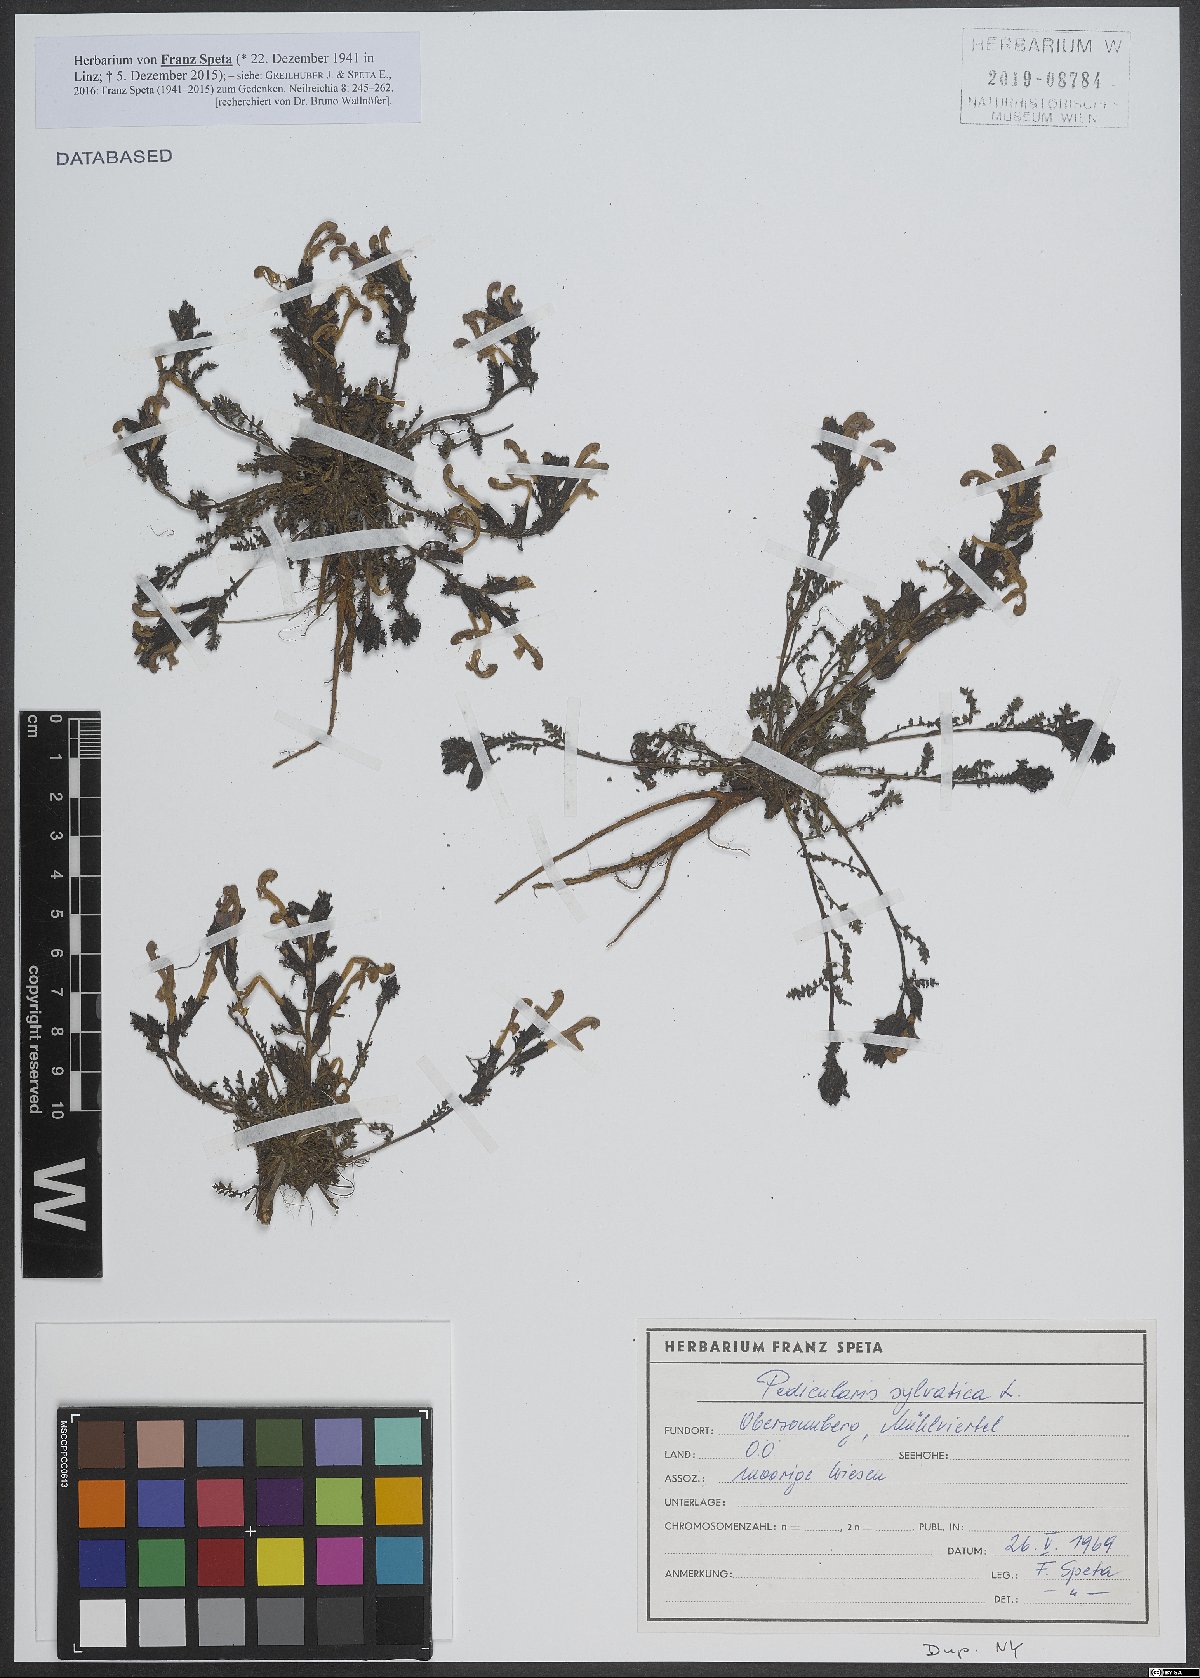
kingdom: Plantae
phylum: Tracheophyta
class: Magnoliopsida
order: Lamiales
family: Orobanchaceae
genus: Pedicularis
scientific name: Pedicularis sylvatica
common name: Lousewort
